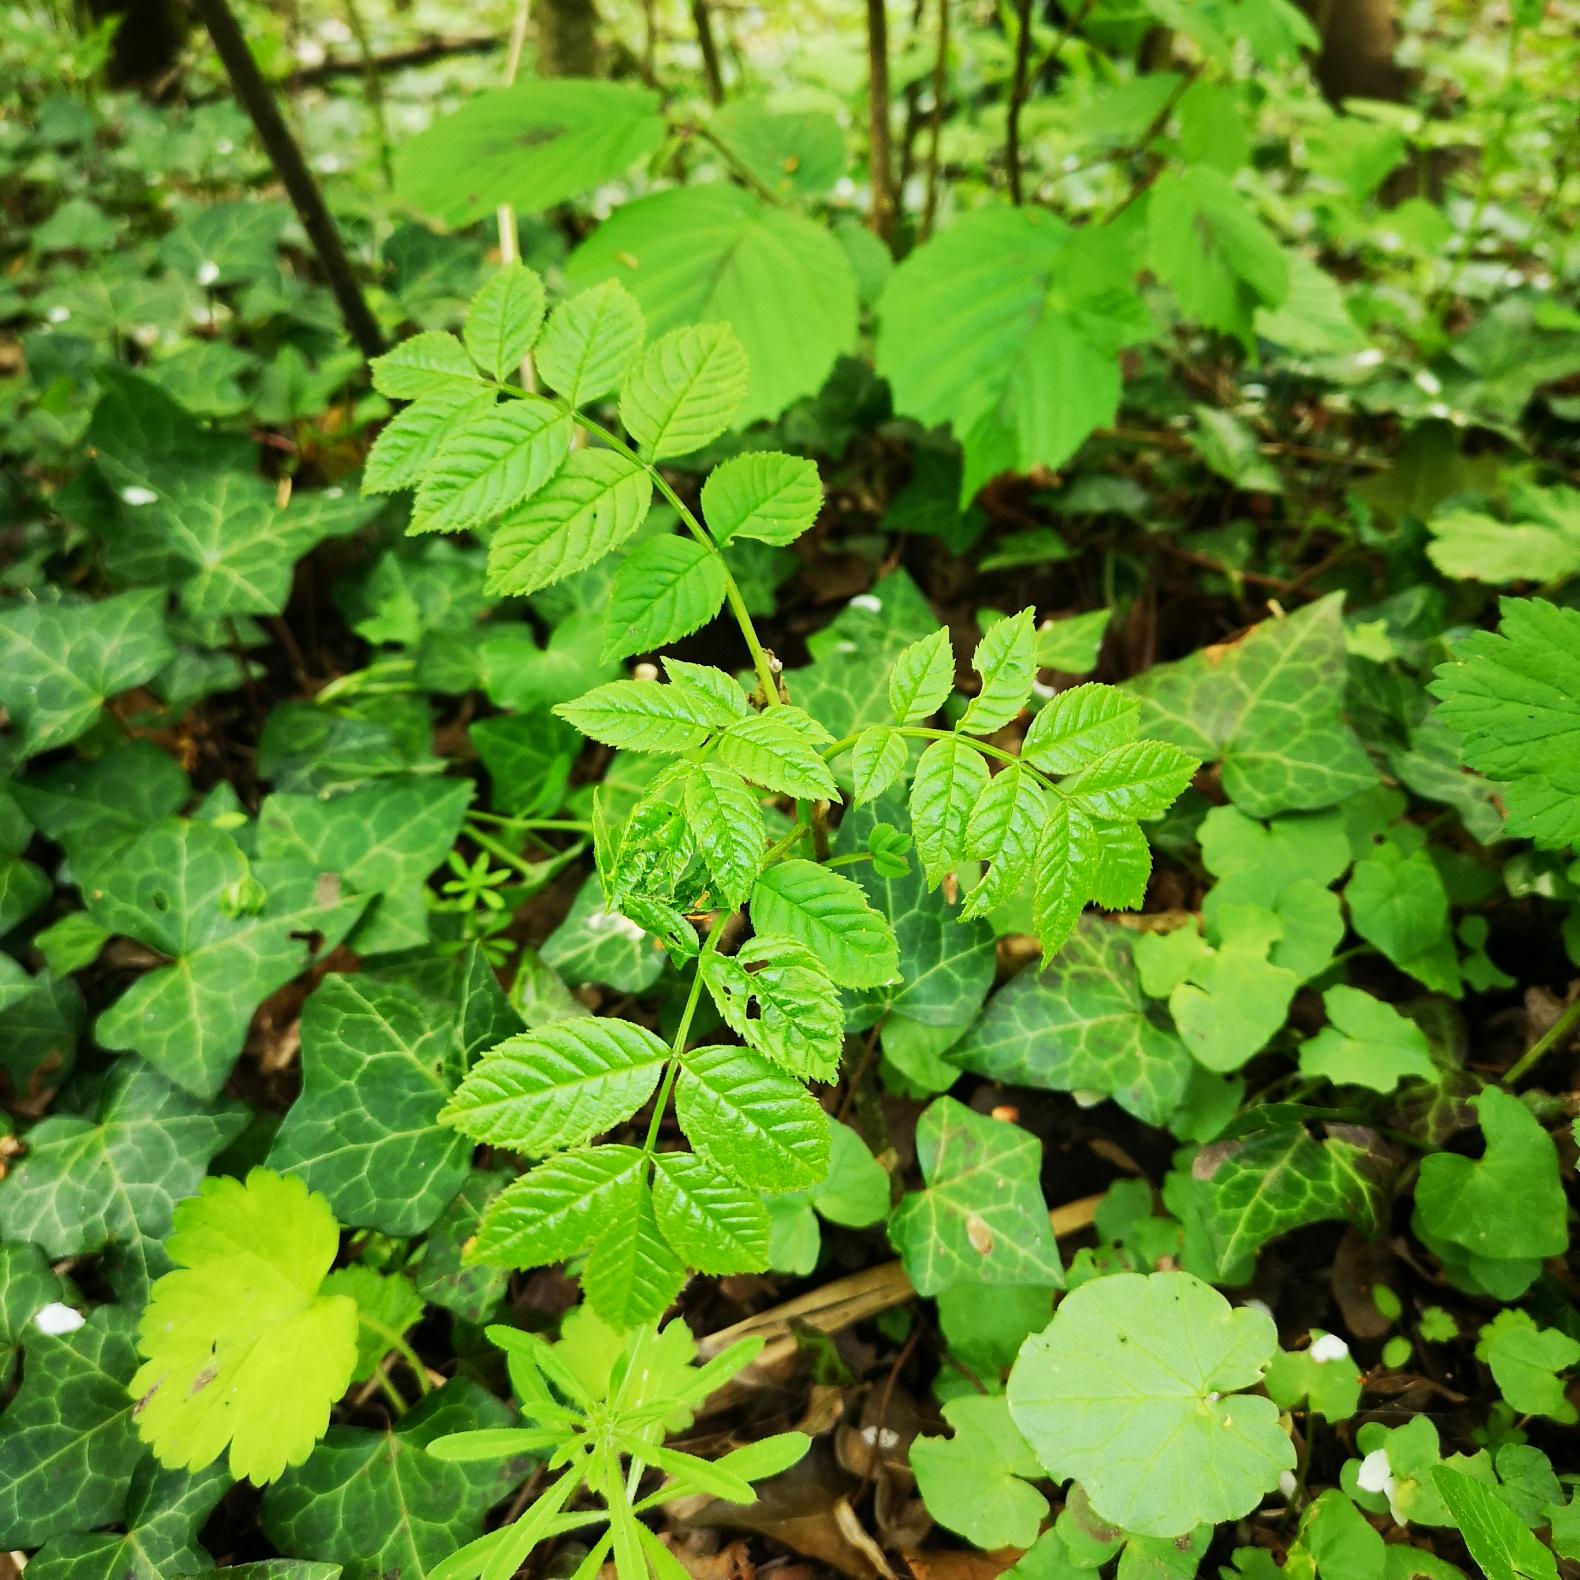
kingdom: Plantae
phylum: Tracheophyta
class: Magnoliopsida
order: Lamiales
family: Oleaceae
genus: Fraxinus
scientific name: Fraxinus excelsior
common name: Ask
